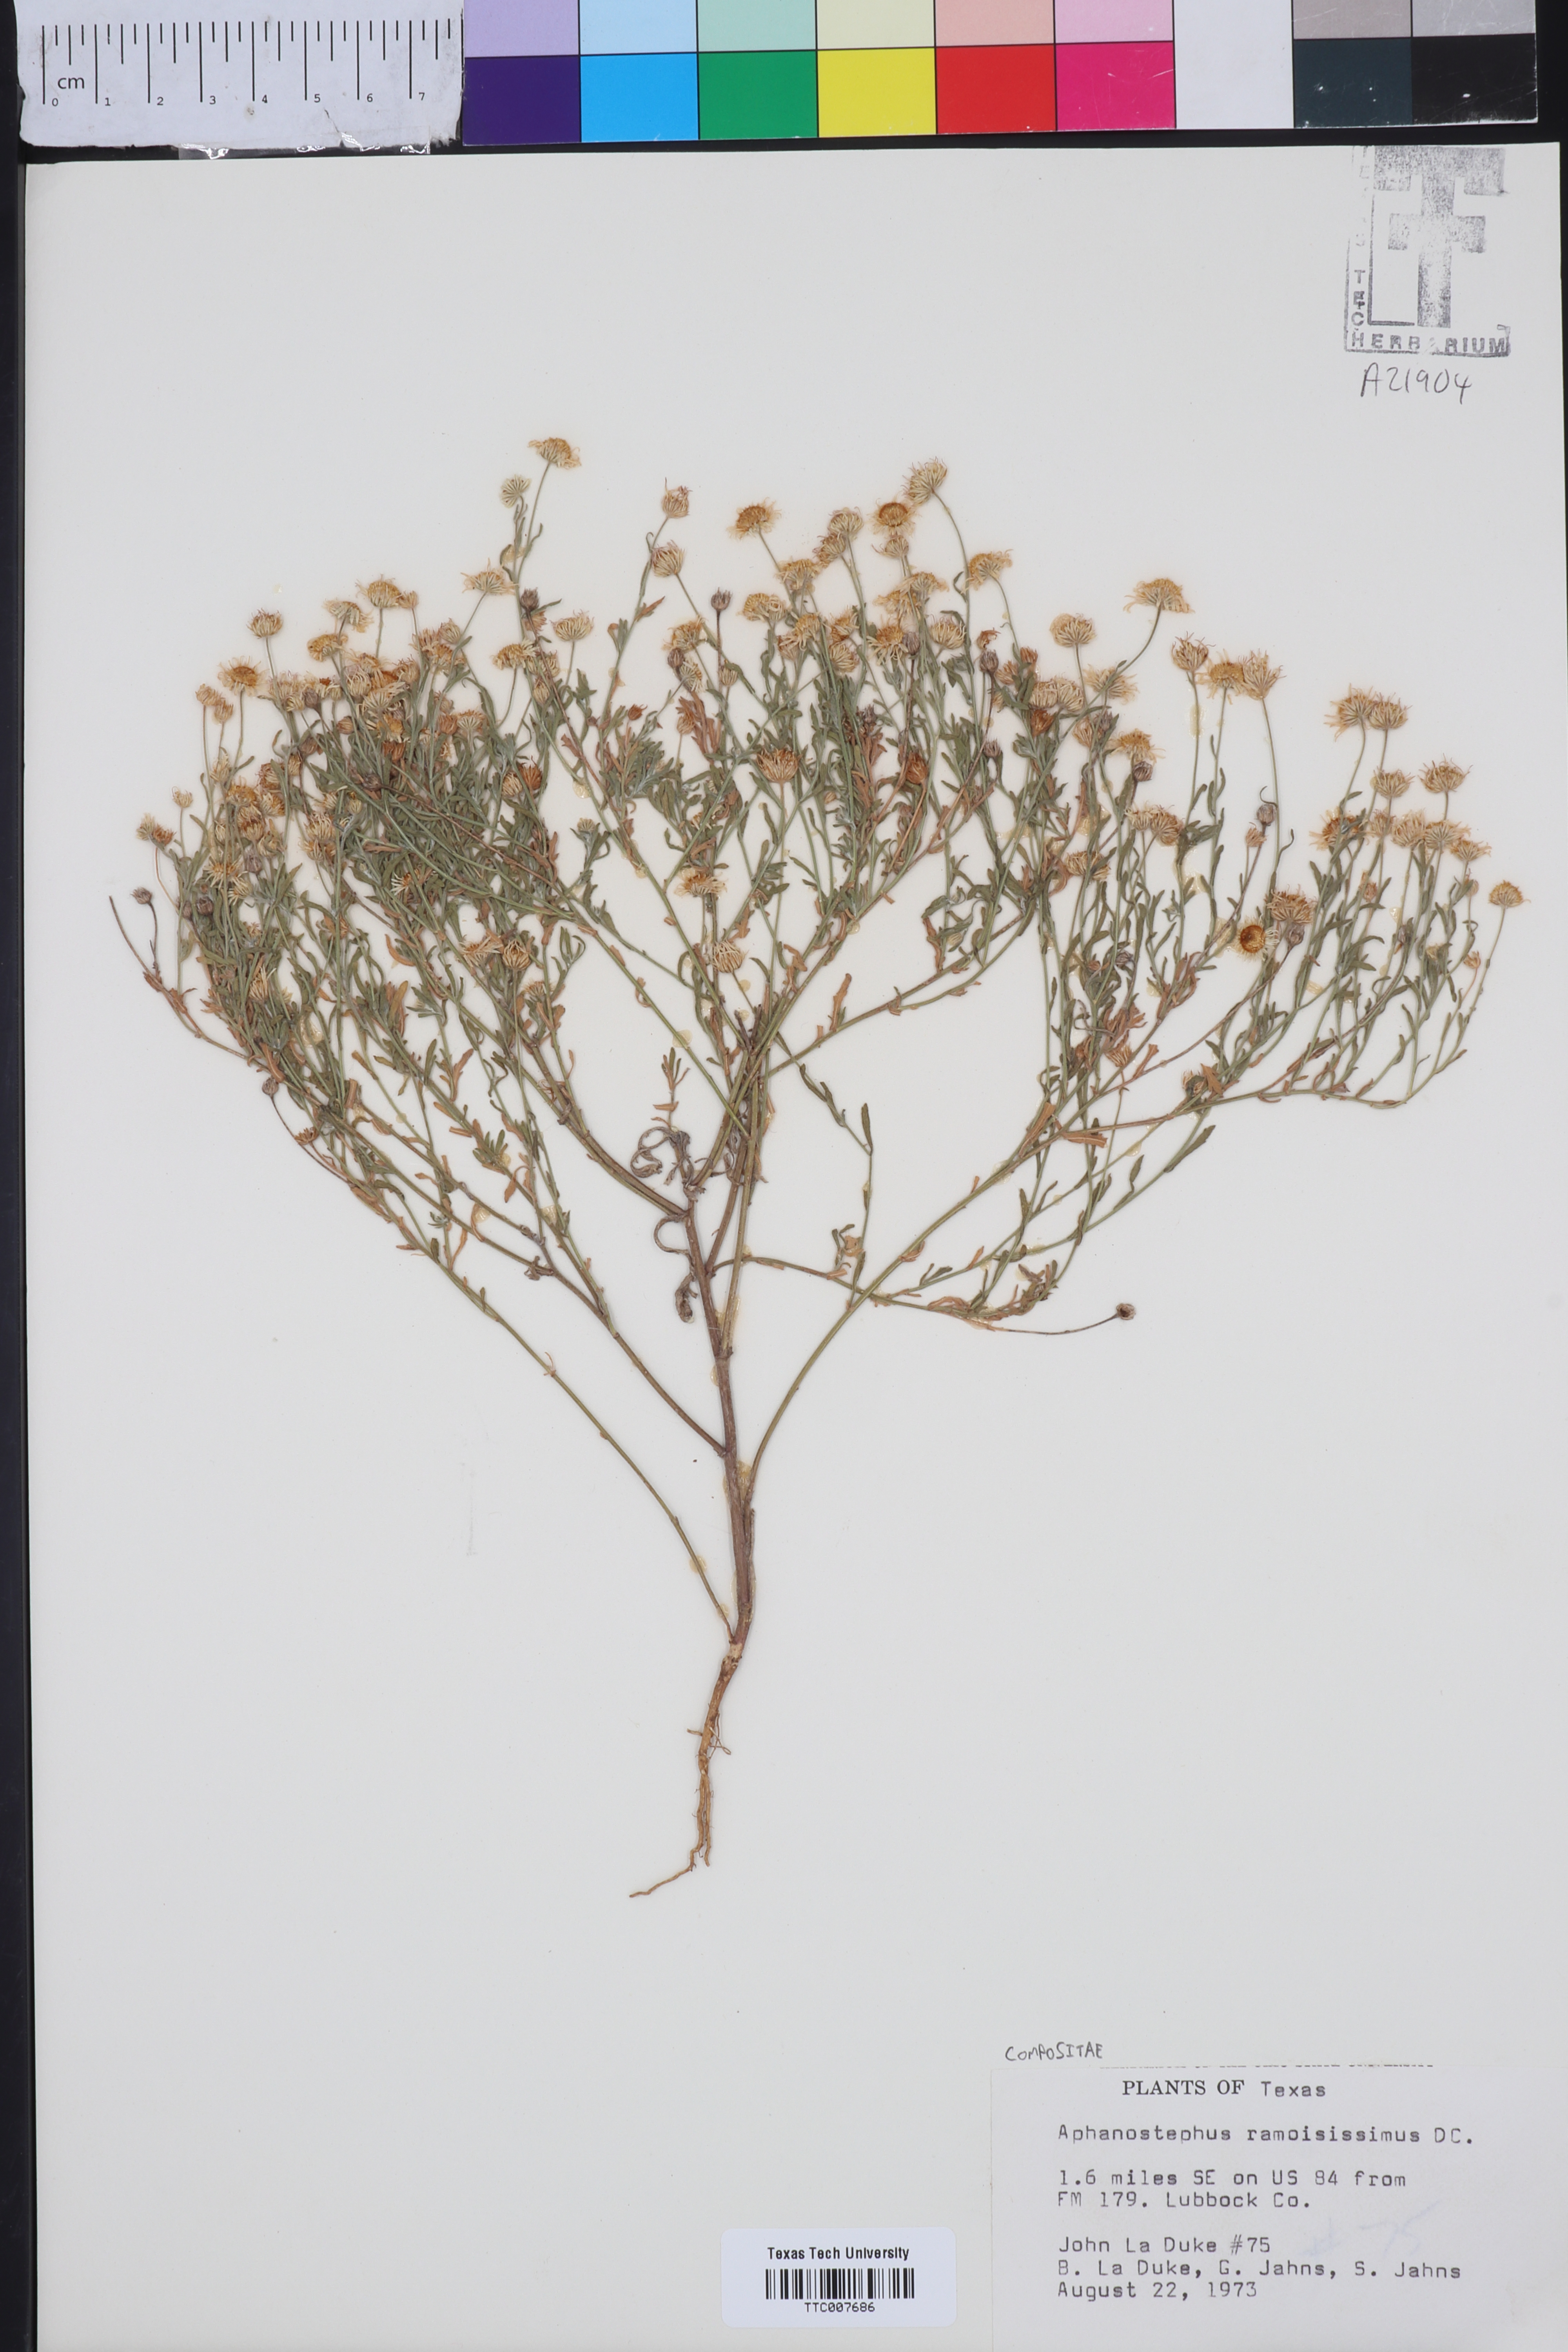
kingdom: Plantae
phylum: Tracheophyta
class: Magnoliopsida
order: Asterales
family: Asteraceae
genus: Aphanostephus
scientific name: Aphanostephus ramosissimus
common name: Plains lazy daisy
